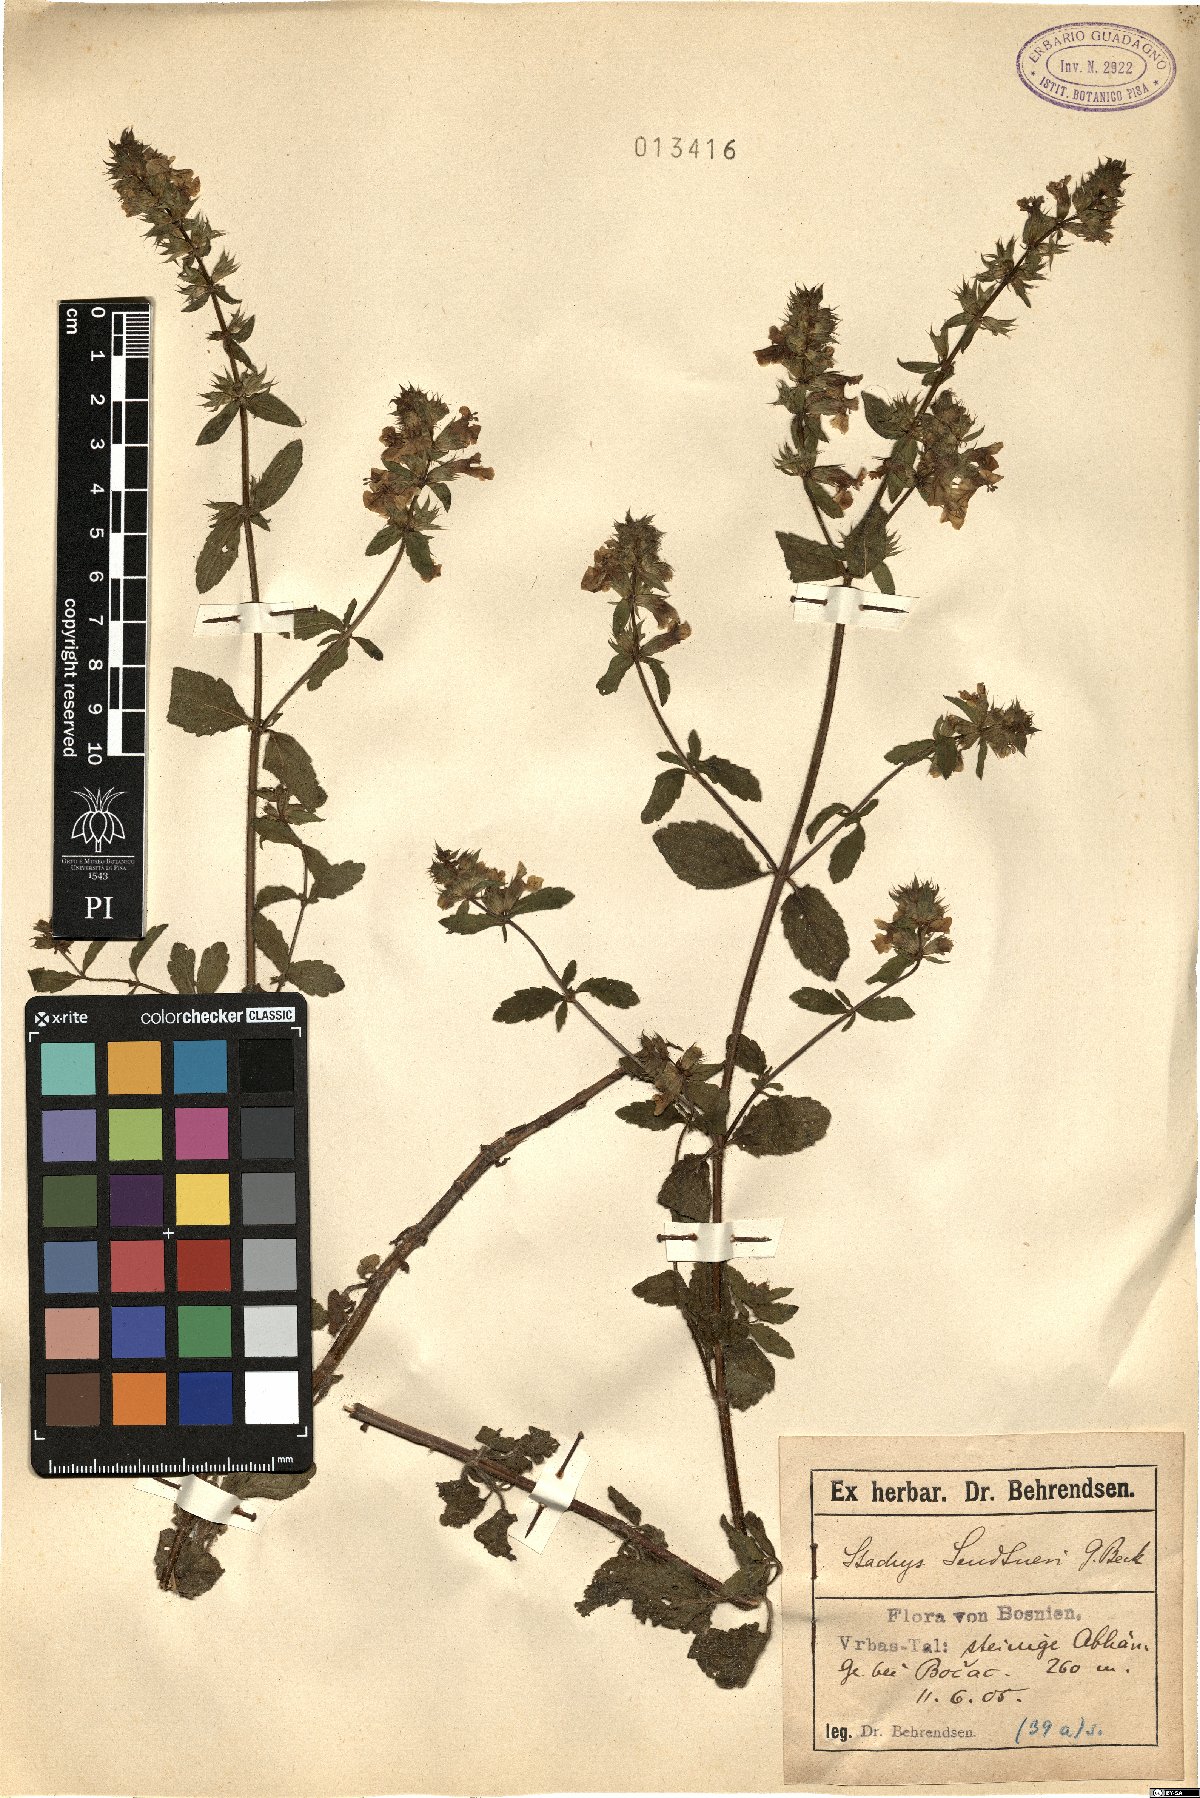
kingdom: Plantae
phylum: Tracheophyta
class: Magnoliopsida
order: Lamiales
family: Lamiaceae
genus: Stachys
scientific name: Stachys anisochila
